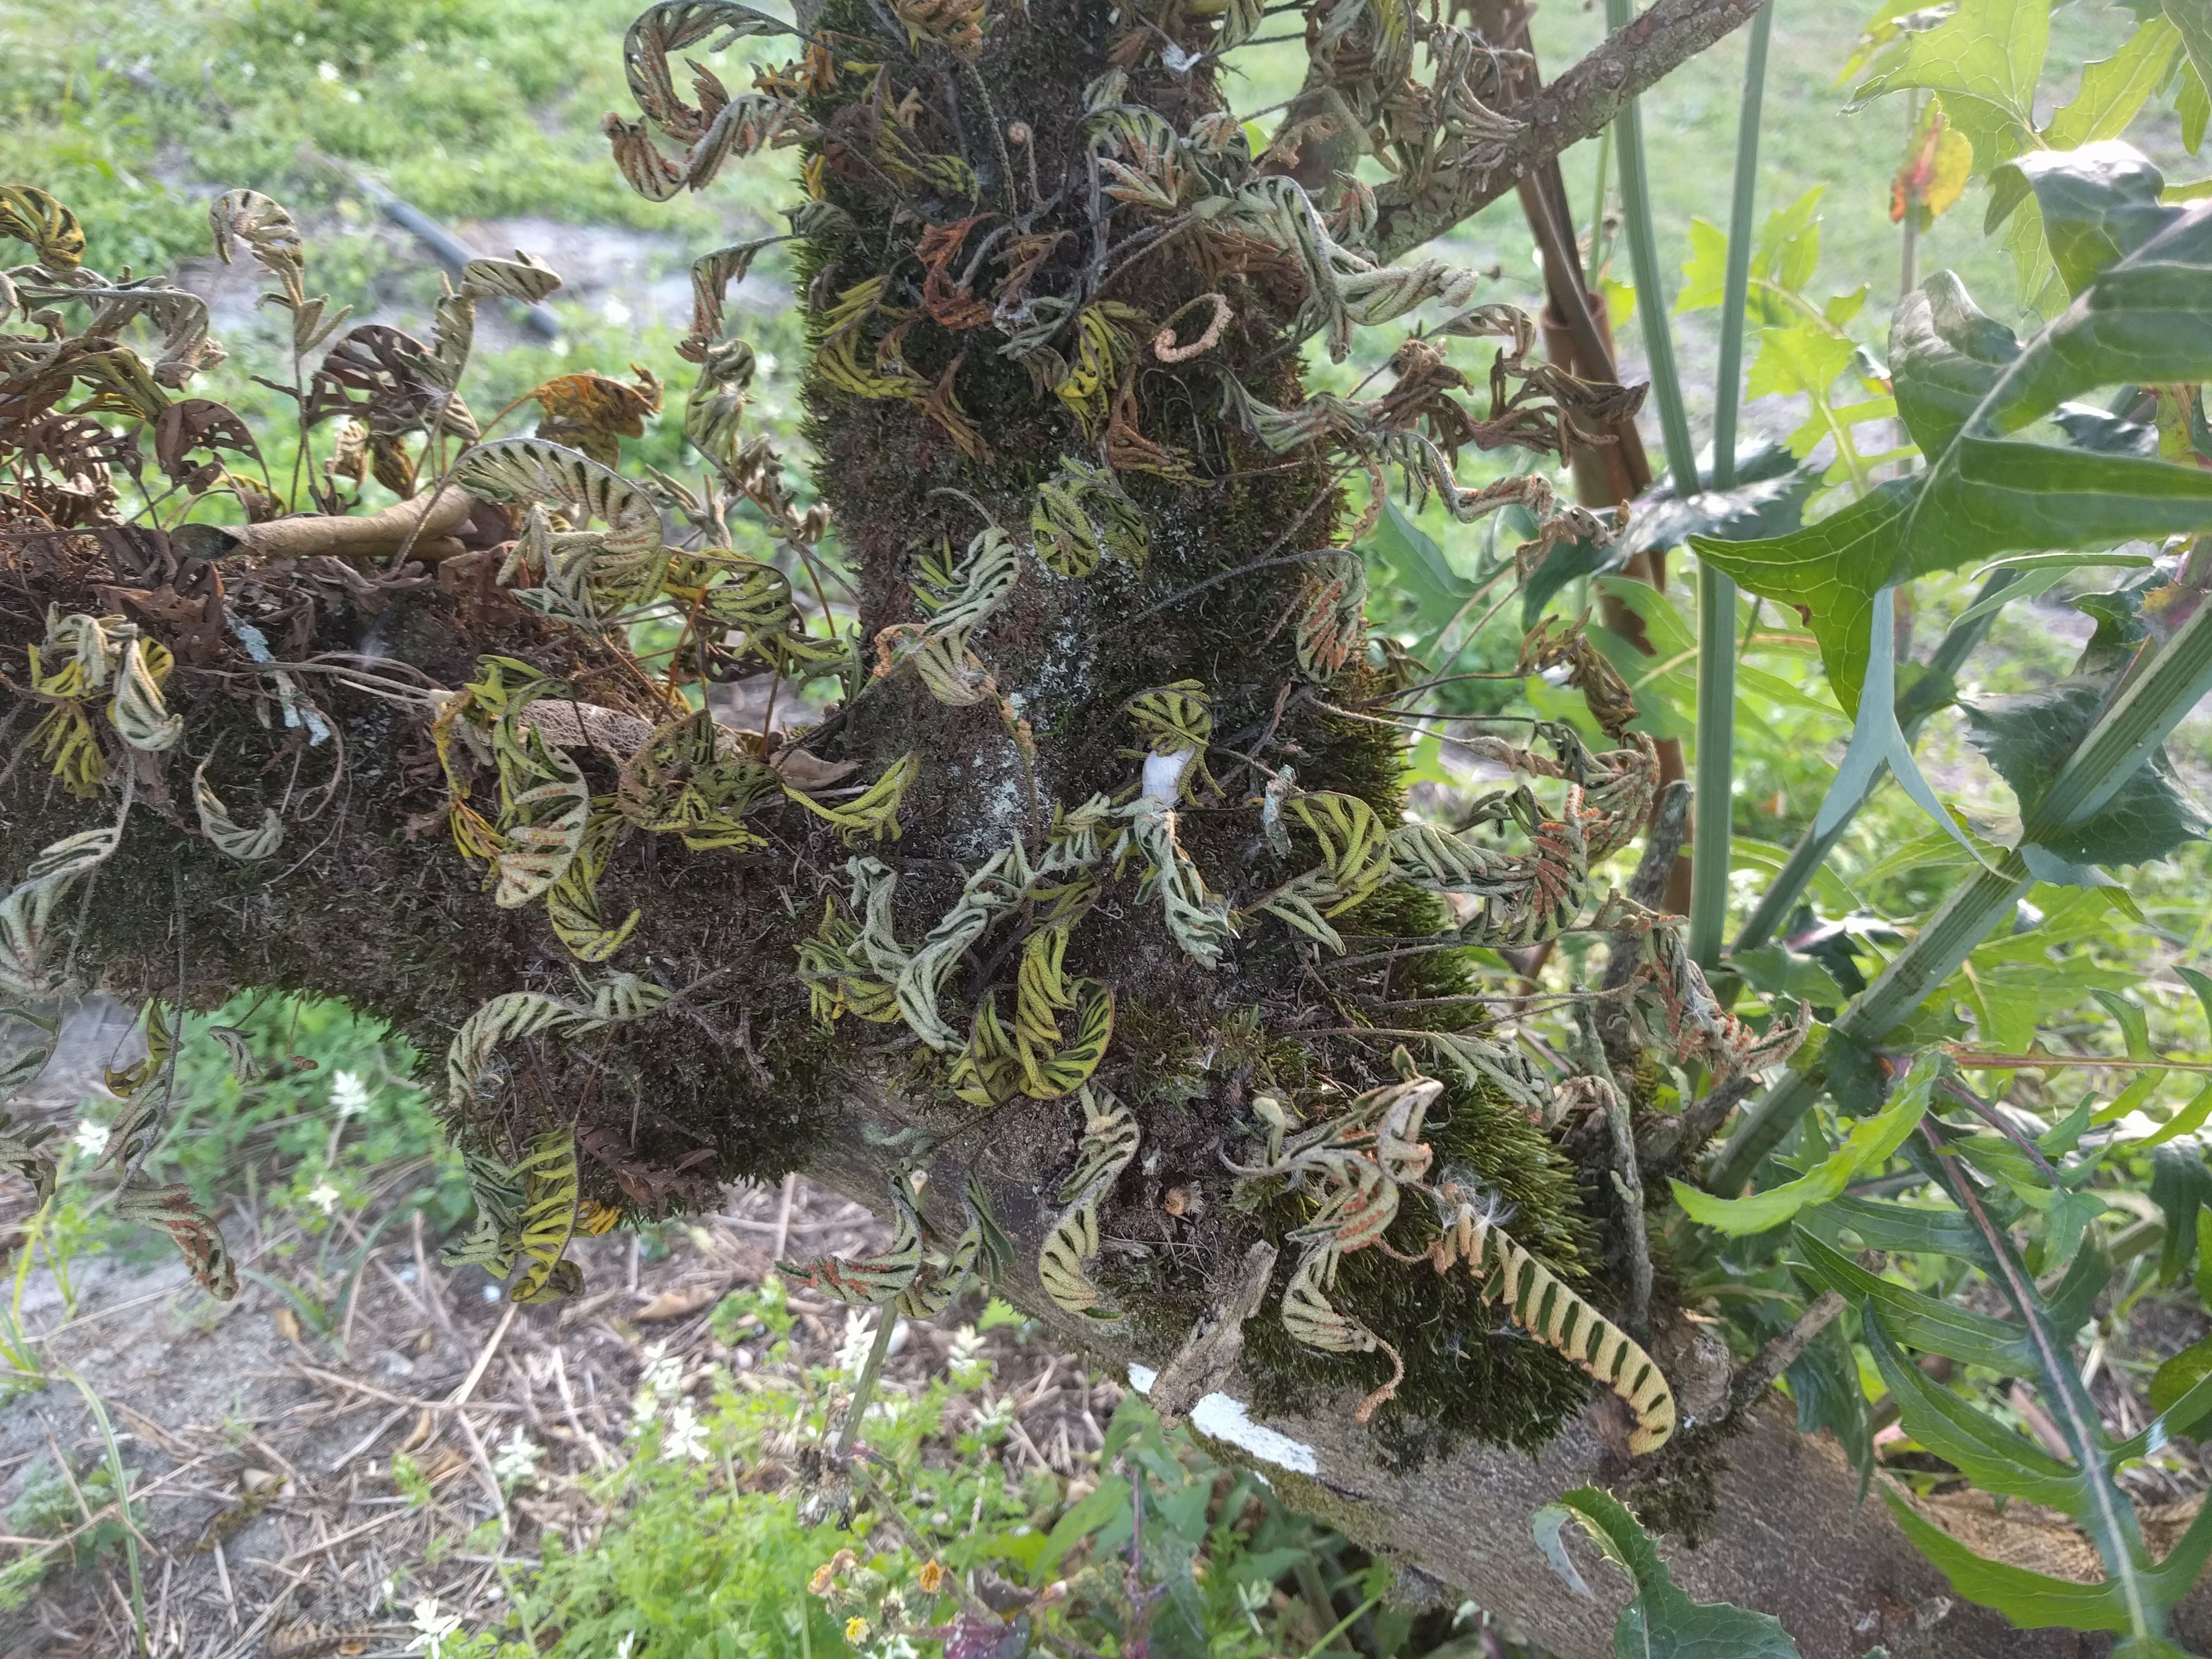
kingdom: Plantae
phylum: Tracheophyta
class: Polypodiopsida
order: Polypodiales
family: Polypodiaceae
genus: Pleopeltis
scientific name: Pleopeltis polypodioides
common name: Resurrection fern
